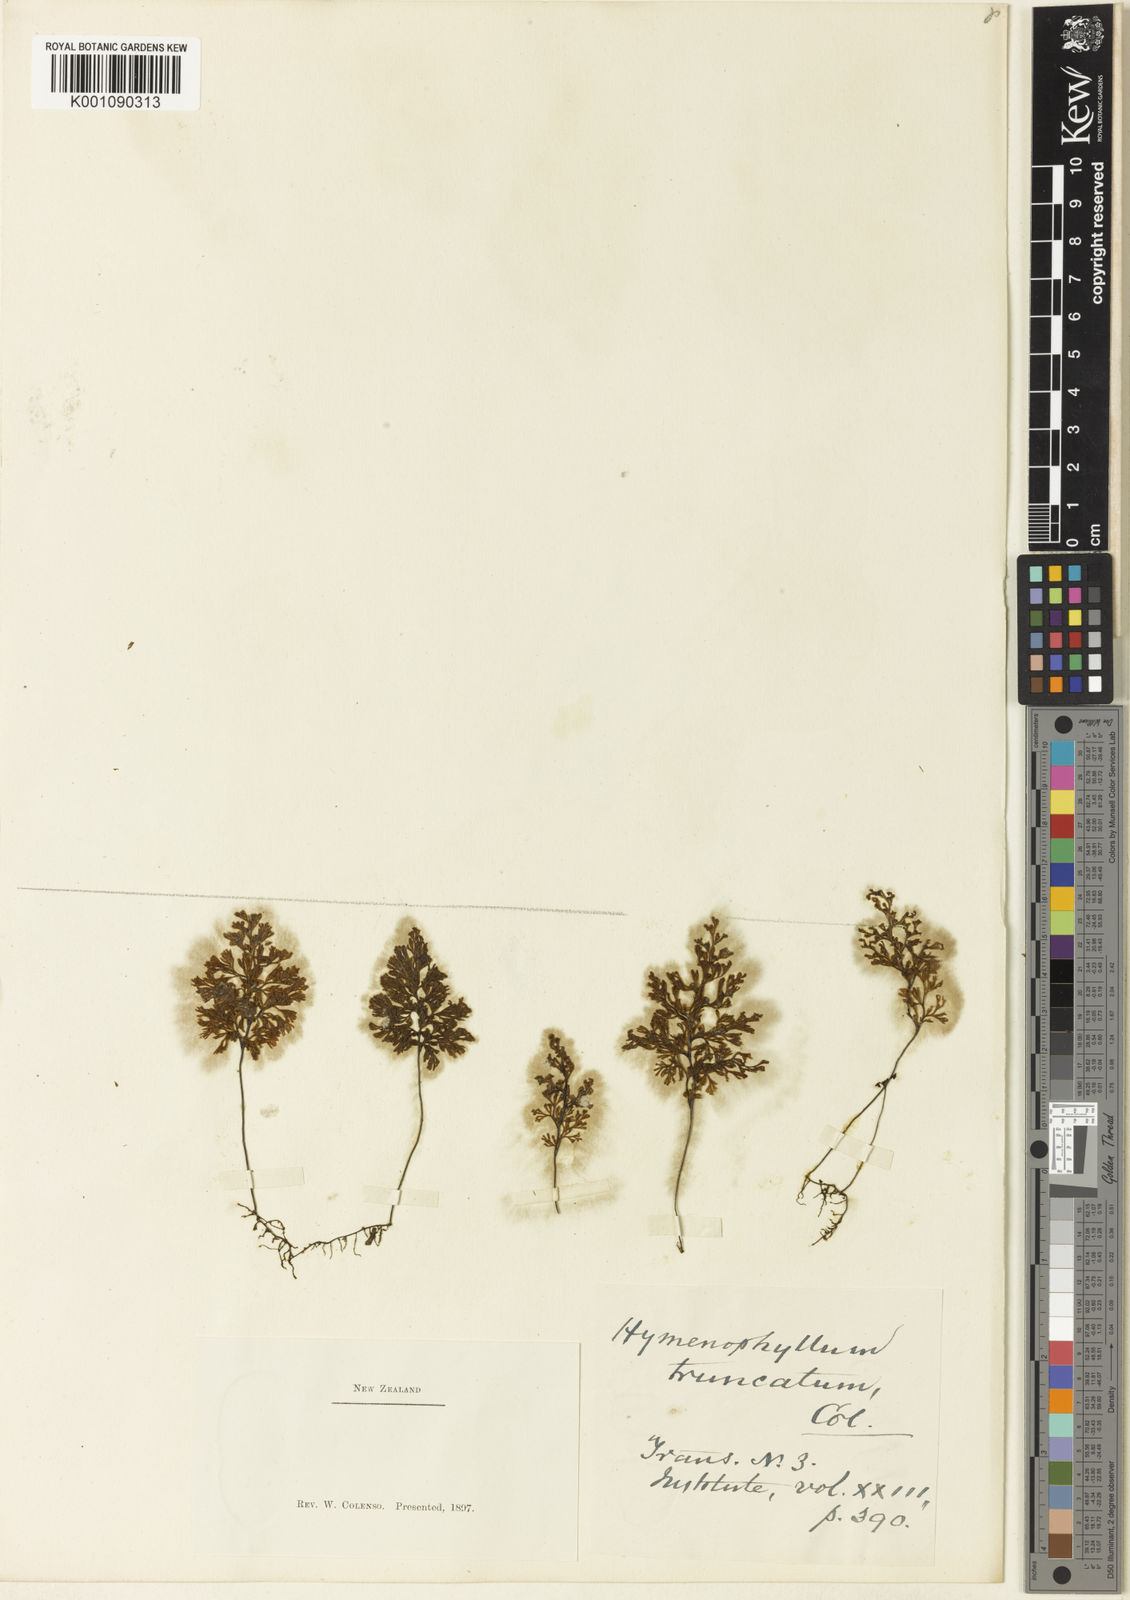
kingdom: Plantae
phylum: Tracheophyta
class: Polypodiopsida
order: Hymenophyllales
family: Hymenophyllaceae
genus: Hymenophyllum
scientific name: Hymenophyllum multifidum
